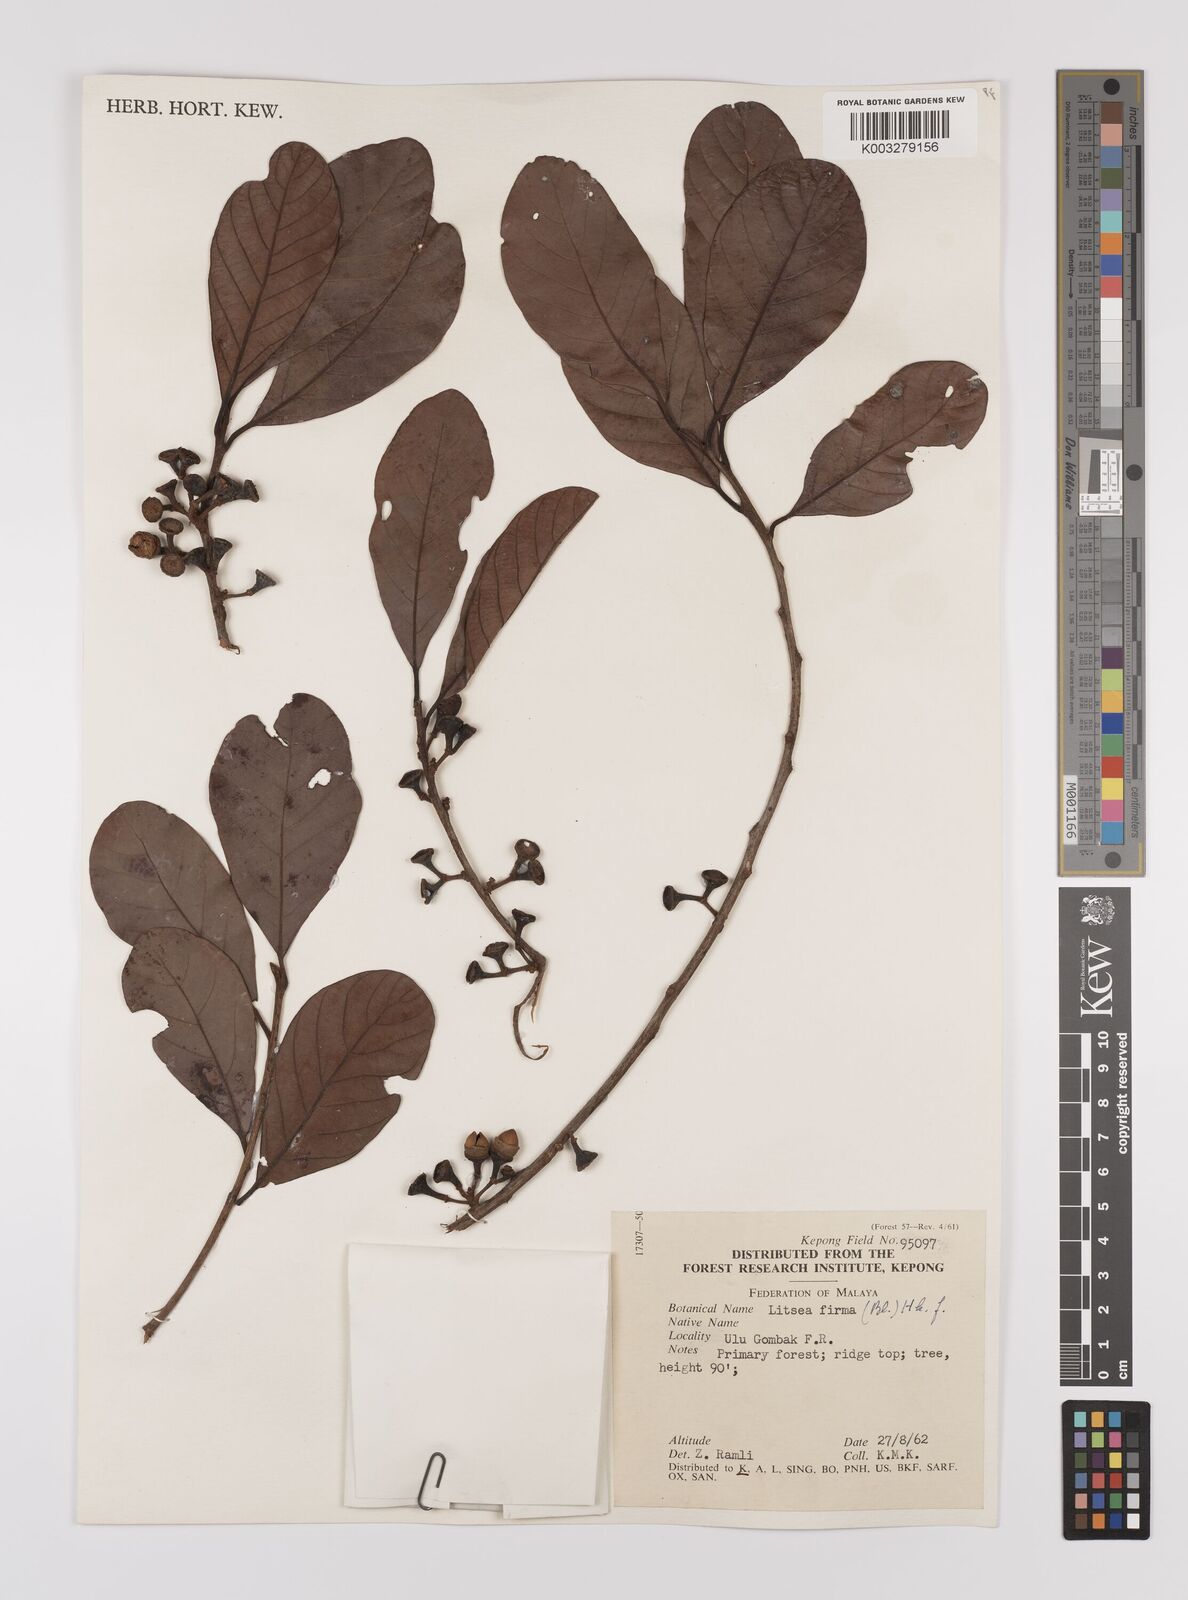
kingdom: Plantae
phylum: Tracheophyta
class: Magnoliopsida
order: Laurales
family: Lauraceae
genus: Litsea
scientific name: Litsea firma
